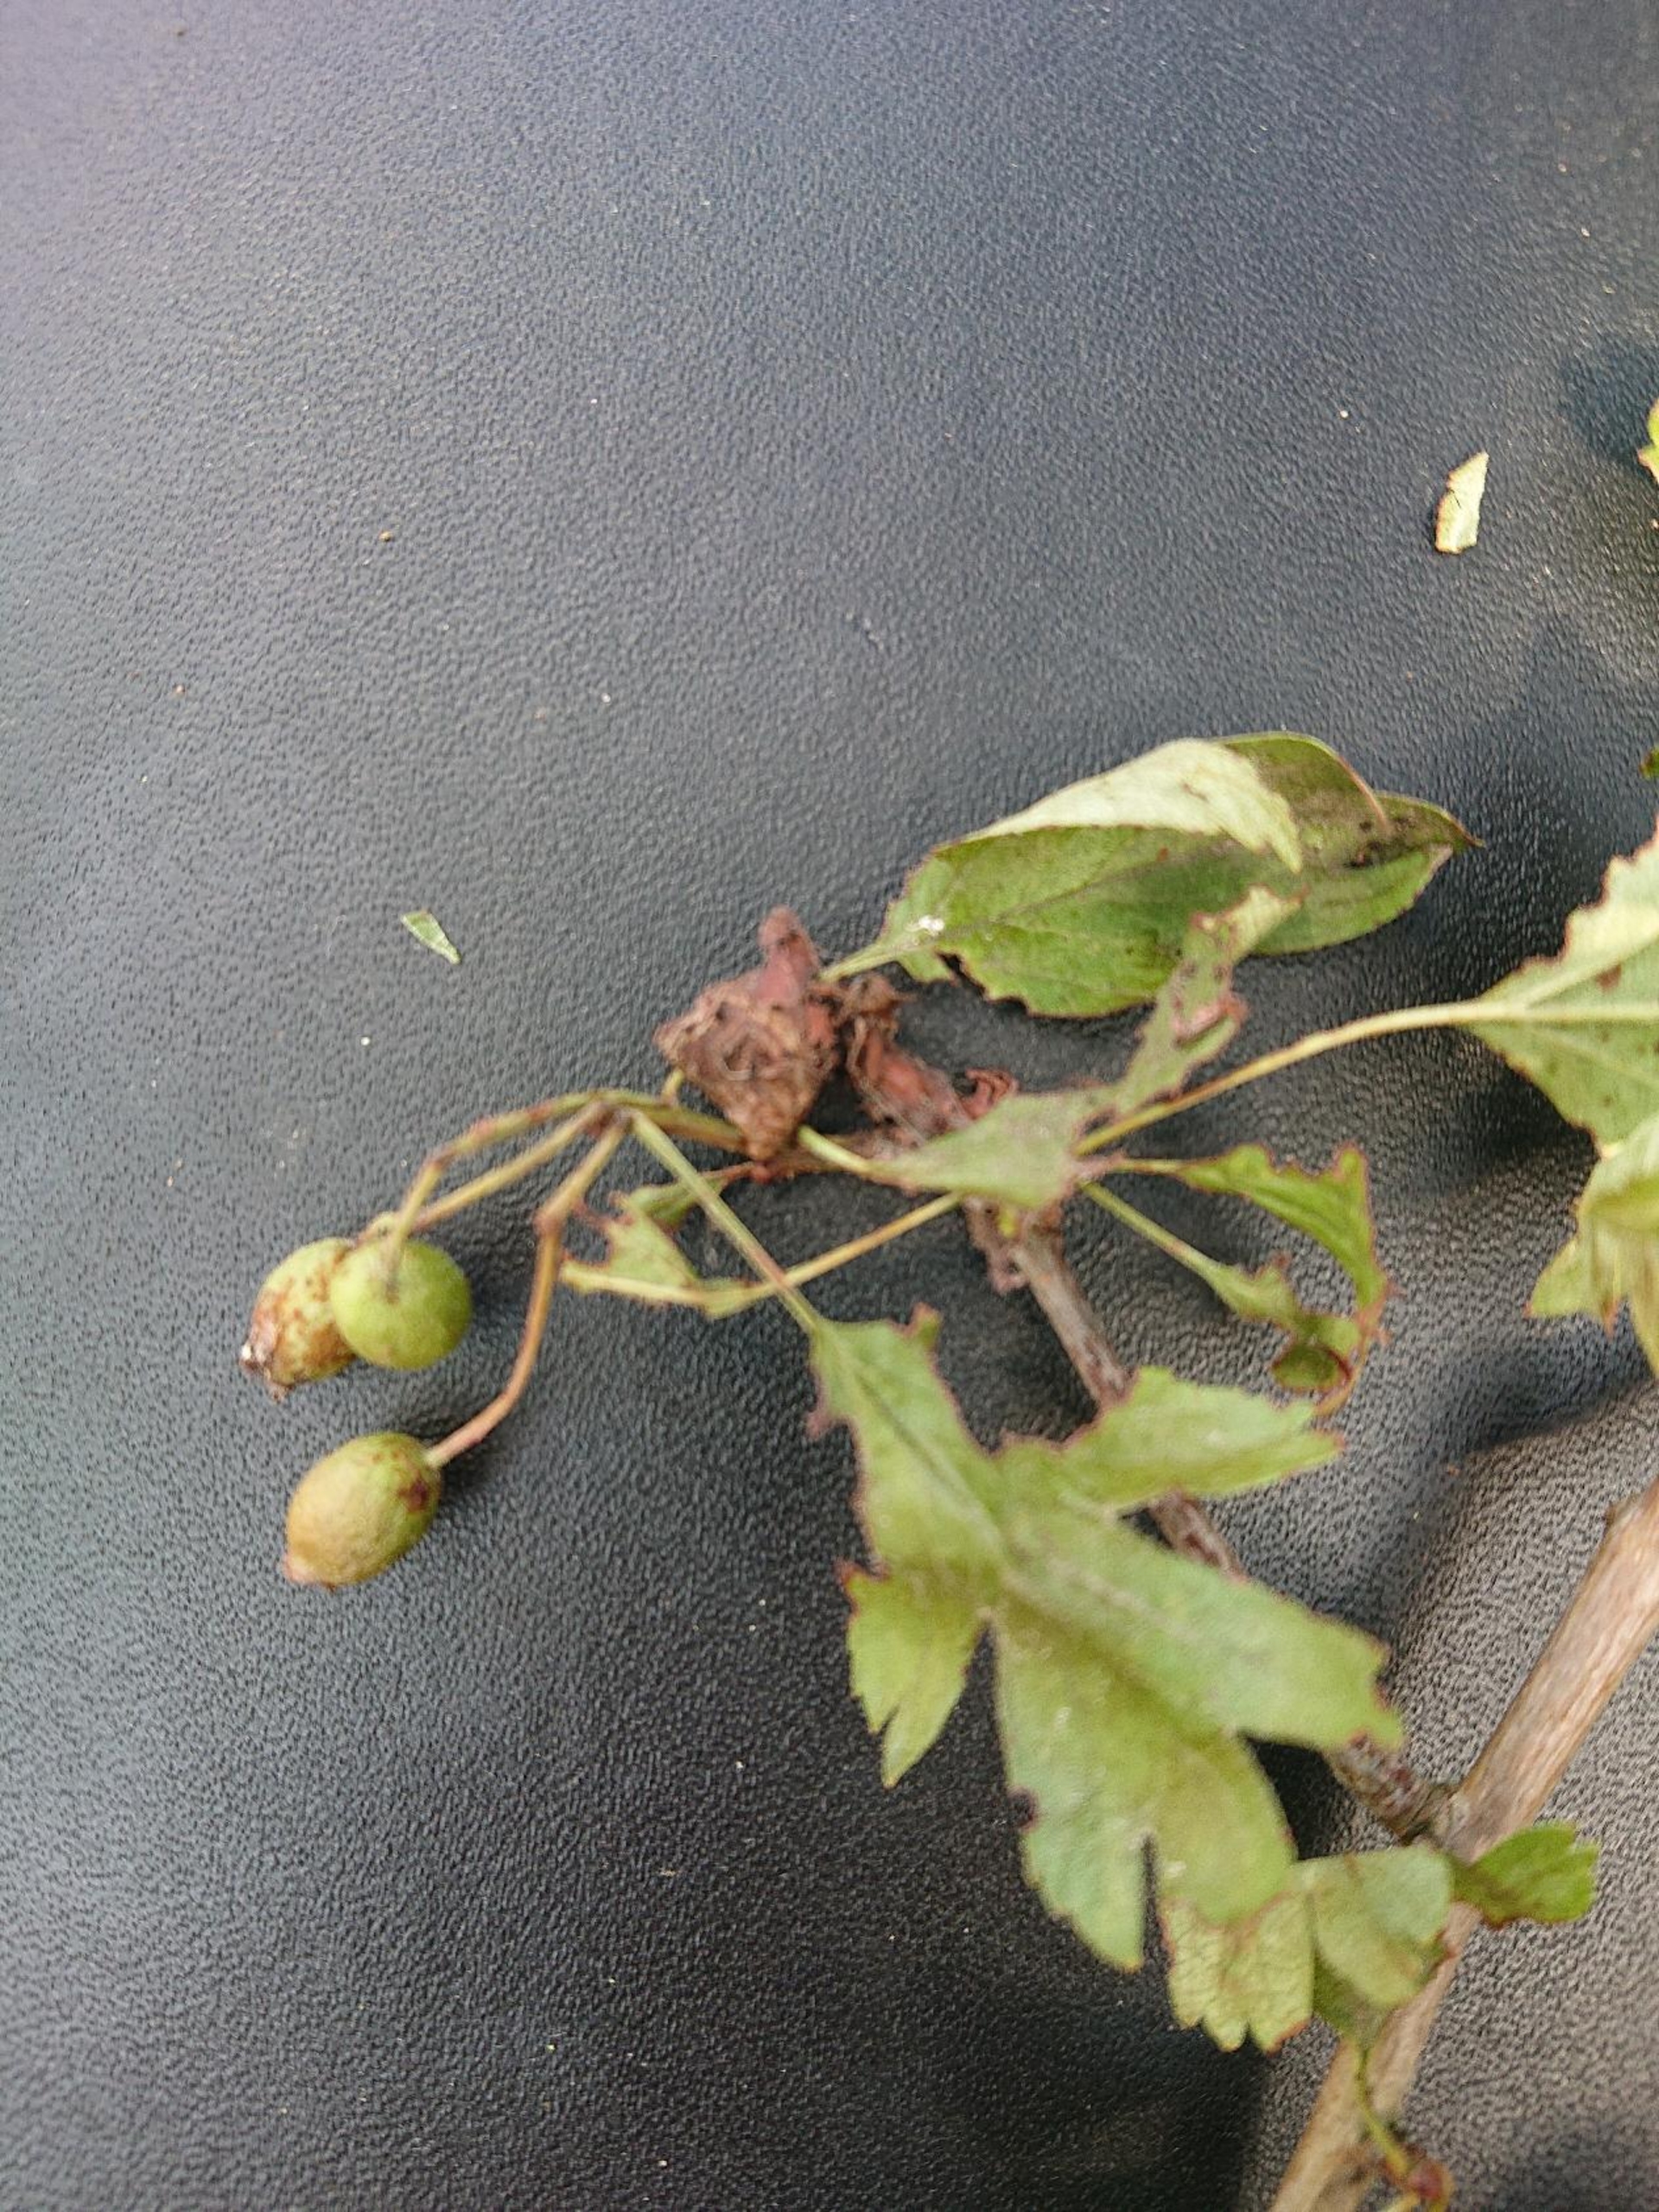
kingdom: Plantae
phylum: Tracheophyta
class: Magnoliopsida
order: Rosales
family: Rosaceae
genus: Crataegus
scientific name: Crataegus monogyna
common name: Engriflet hvidtjørn
